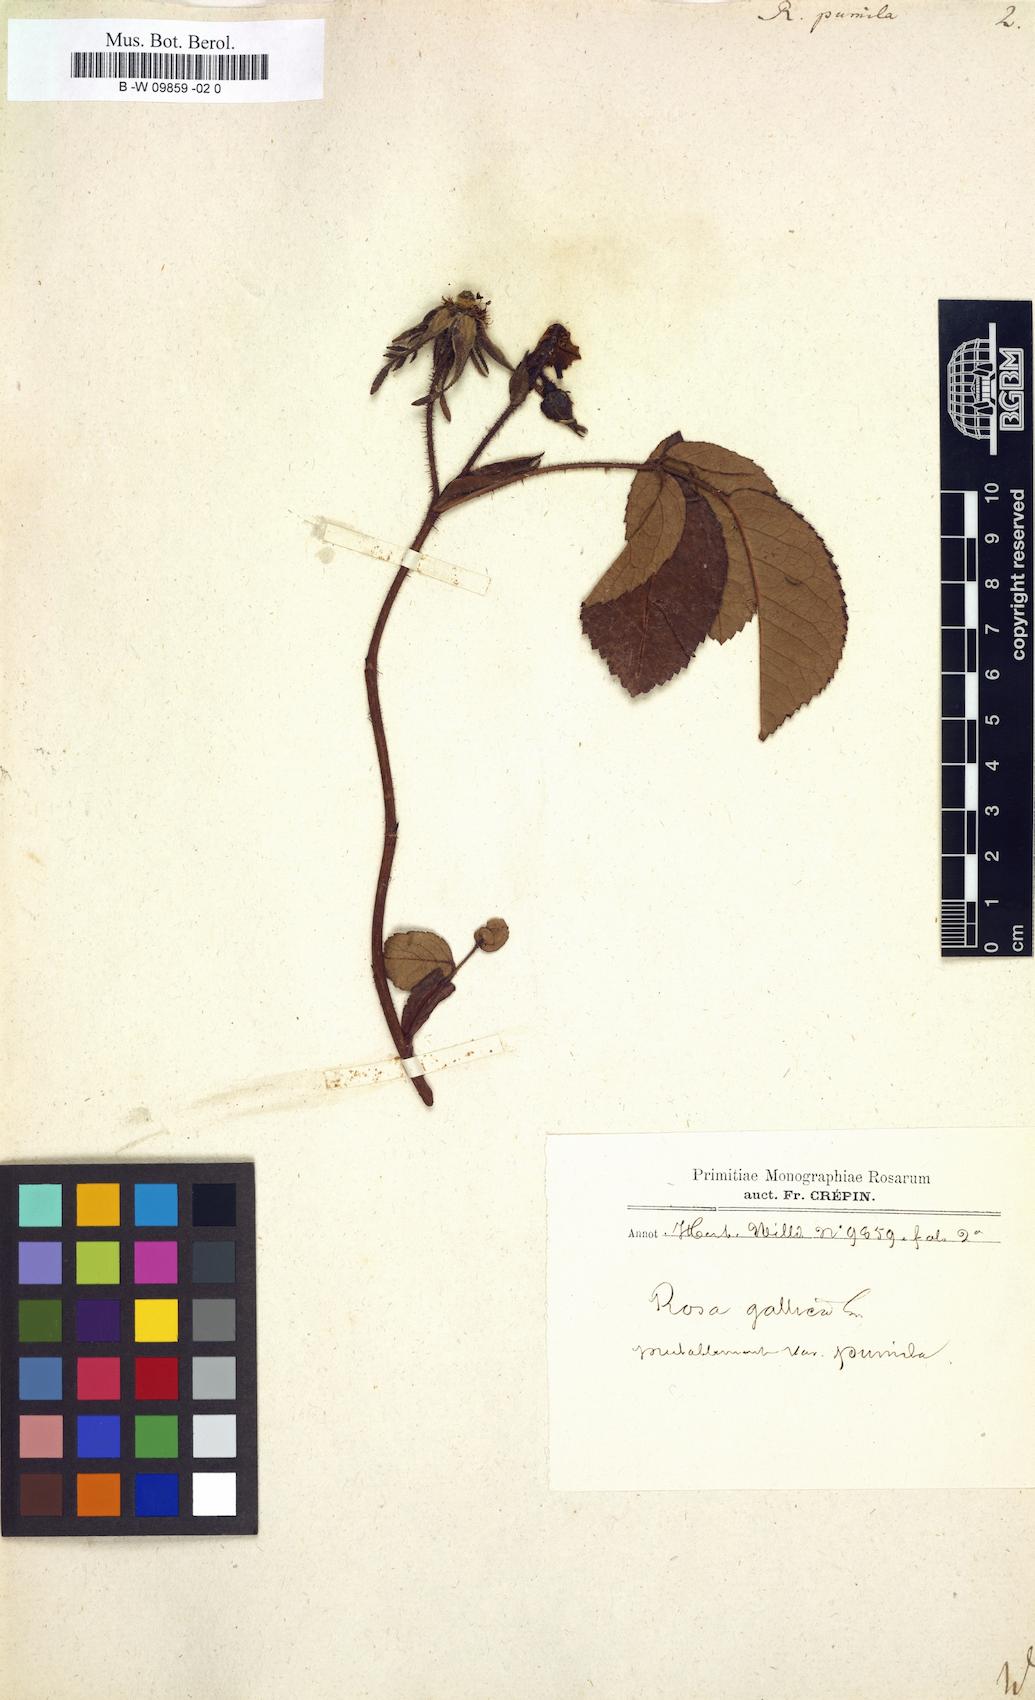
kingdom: Plantae
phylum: Tracheophyta
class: Magnoliopsida
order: Rosales
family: Rosaceae
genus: Rosa
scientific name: Rosa gallica
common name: French rose
